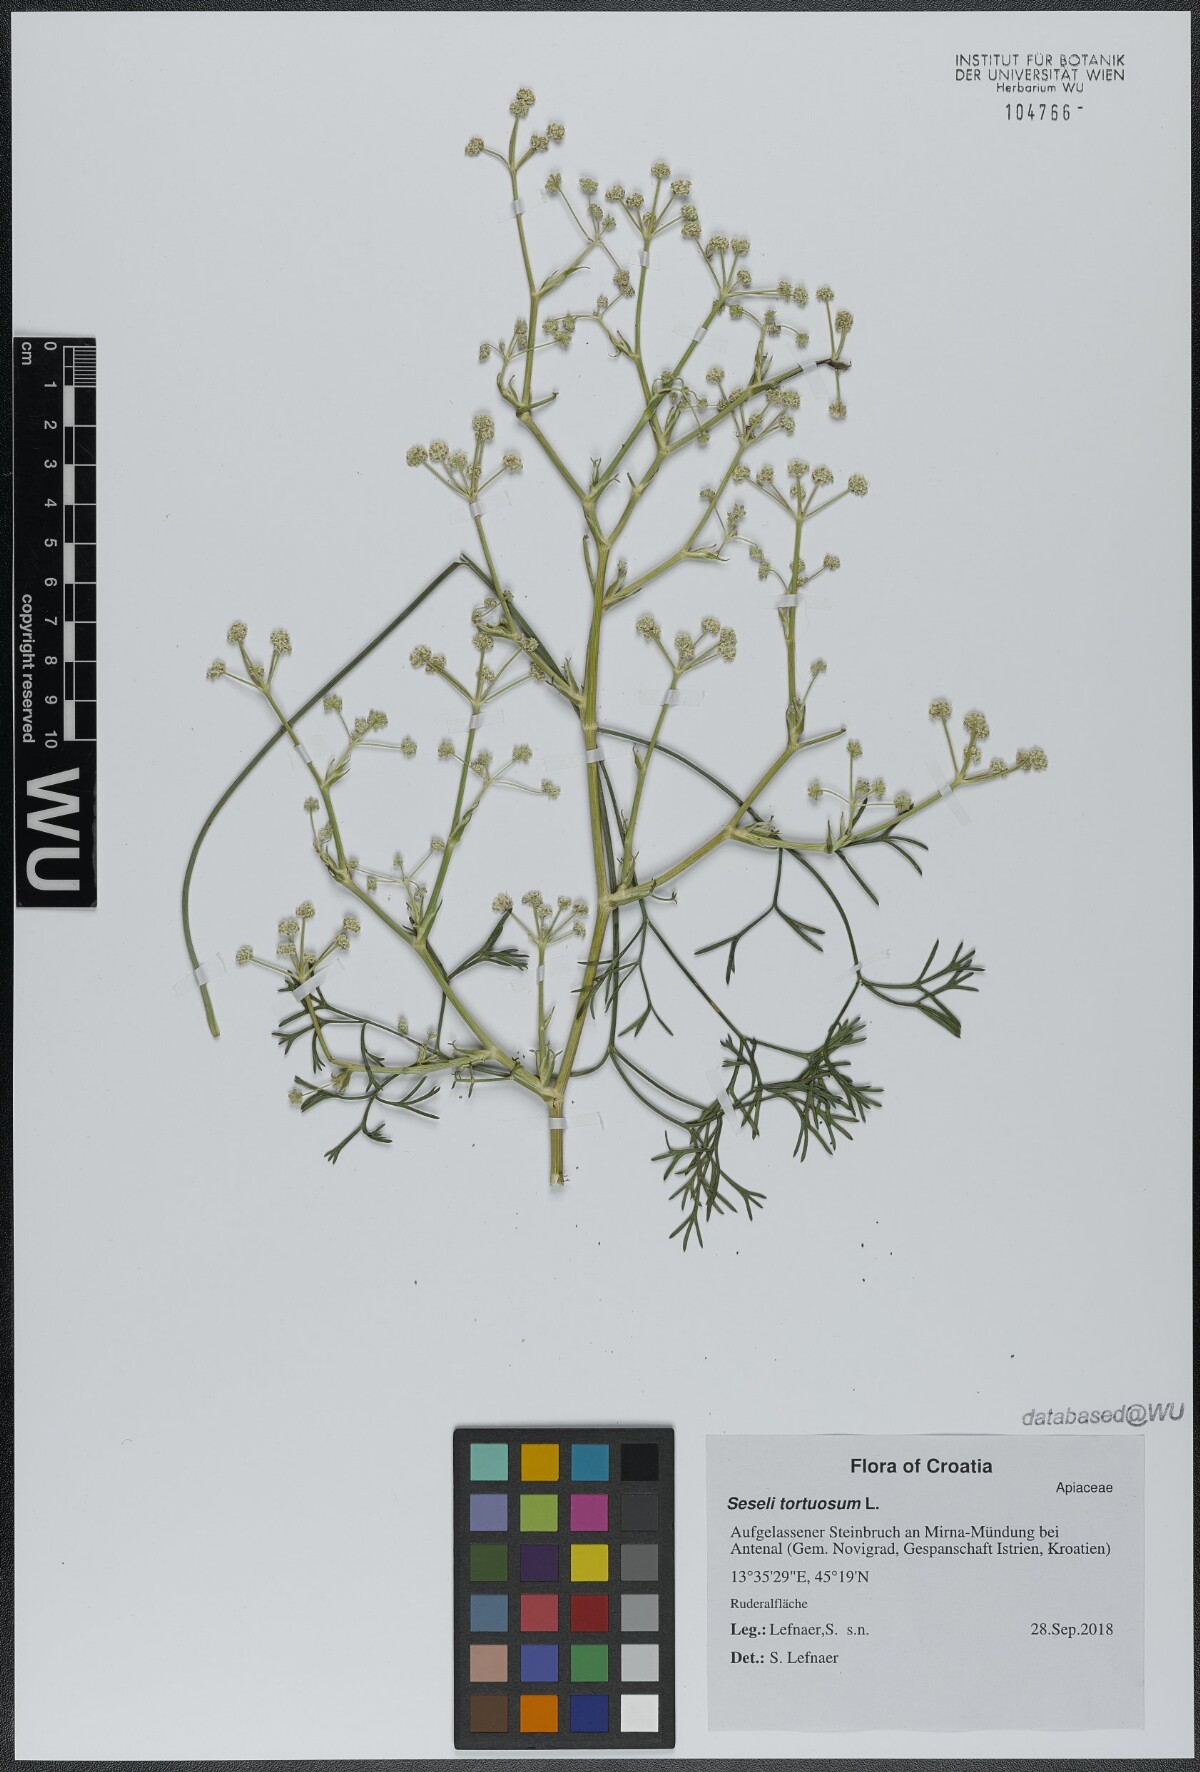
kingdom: Plantae
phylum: Tracheophyta
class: Magnoliopsida
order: Apiales
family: Apiaceae
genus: Seseli
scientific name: Seseli tortuosum
